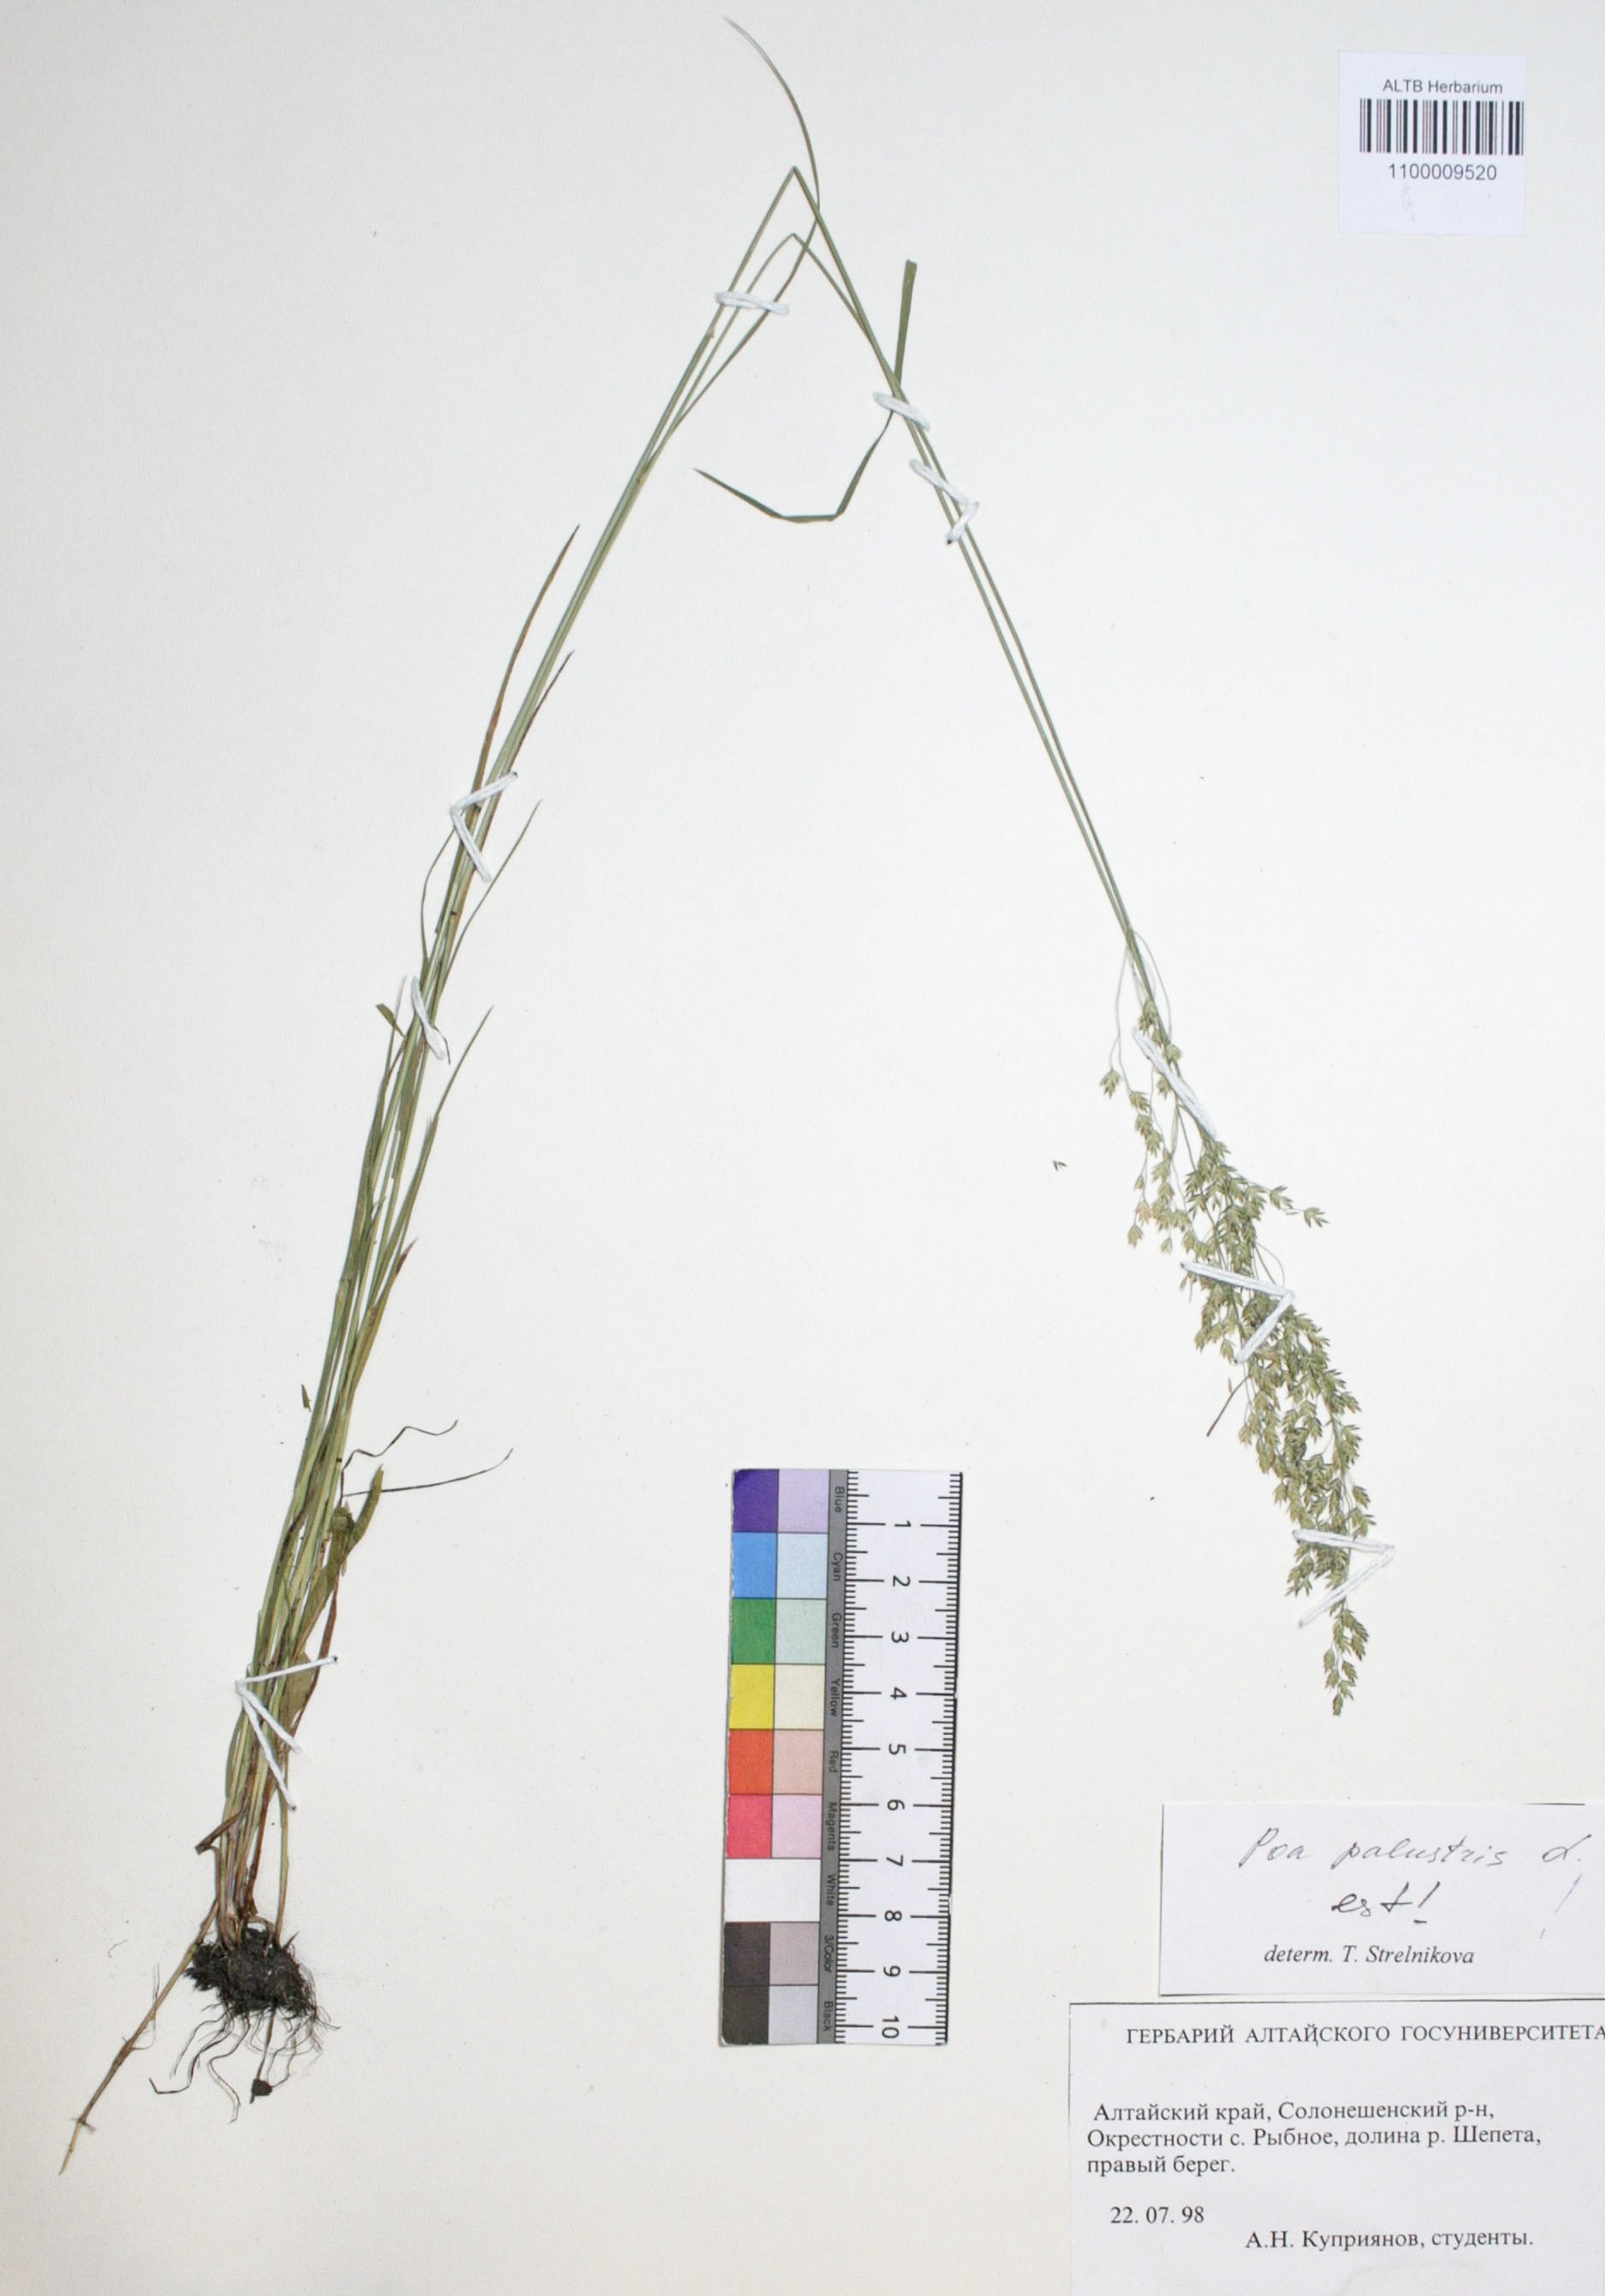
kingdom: Plantae
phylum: Tracheophyta
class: Liliopsida
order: Poales
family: Poaceae
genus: Poa
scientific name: Poa palustris
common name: Swamp meadow-grass
